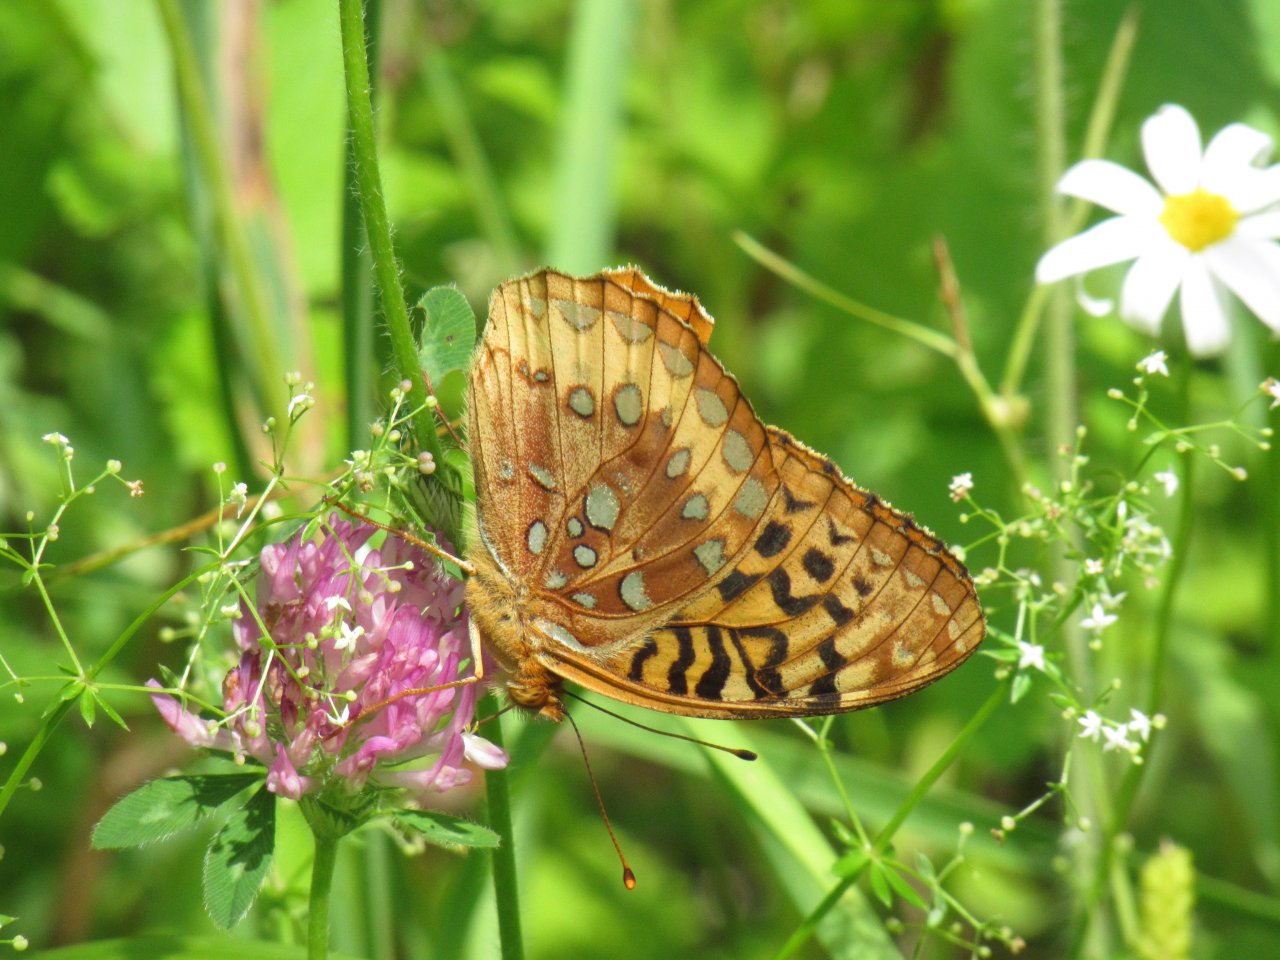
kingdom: Animalia
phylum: Arthropoda
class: Insecta
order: Lepidoptera
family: Nymphalidae
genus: Speyeria
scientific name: Speyeria cybele
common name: Great Spangled Fritillary
